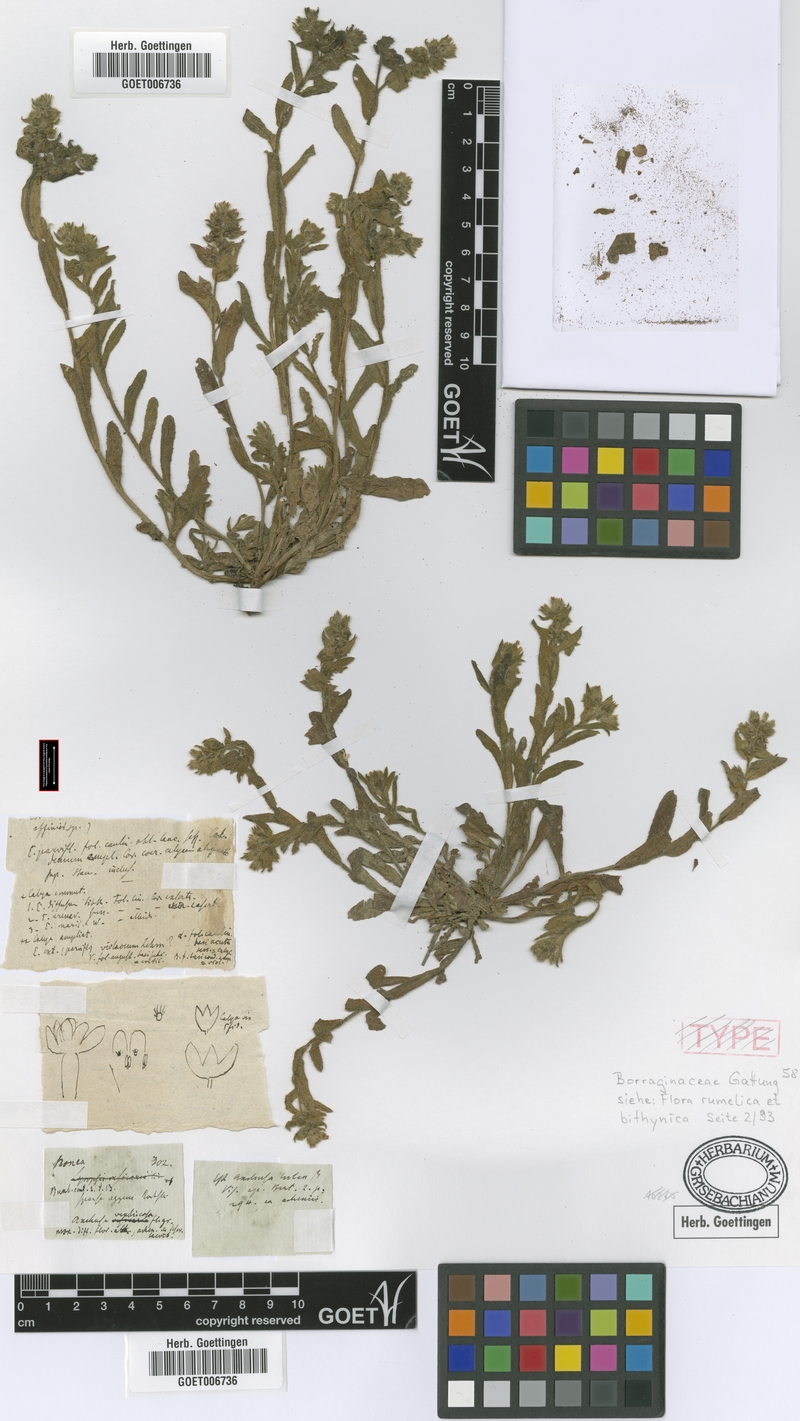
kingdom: Plantae
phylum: Tracheophyta
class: Magnoliopsida
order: Boraginales
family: Boraginaceae
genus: Nonea
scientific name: Nonea echioides
